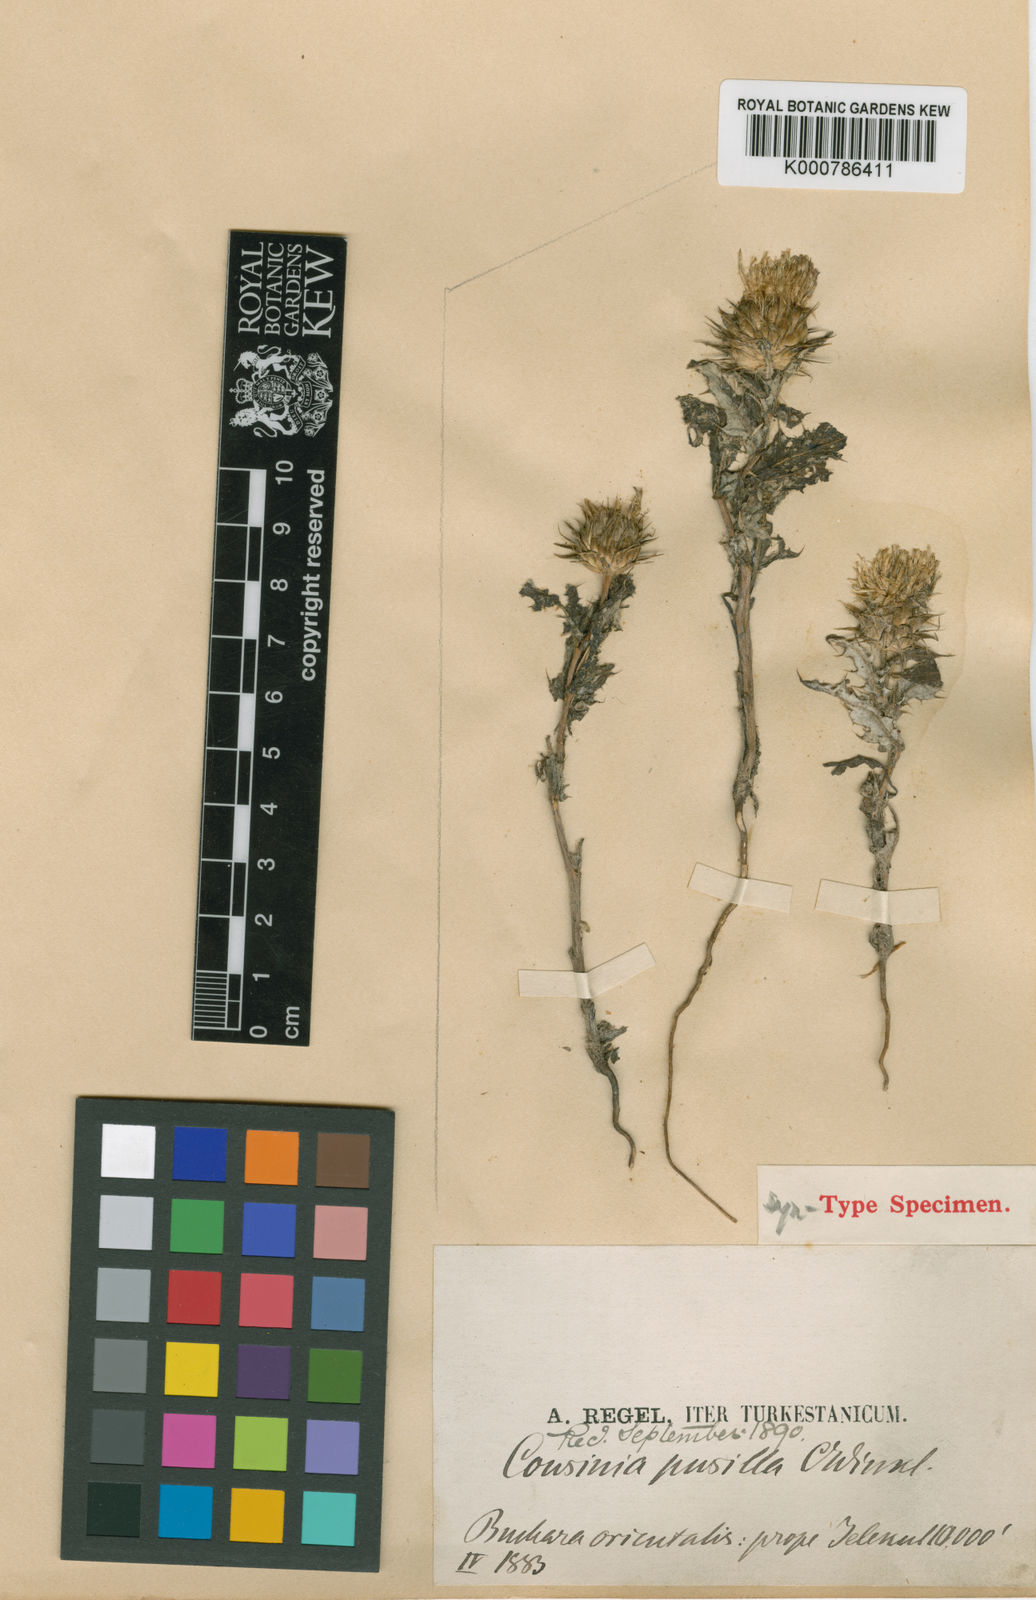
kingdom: Plantae
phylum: Tracheophyta
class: Magnoliopsida
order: Asterales
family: Asteraceae
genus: Cousinia
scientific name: Cousinia pusilla
